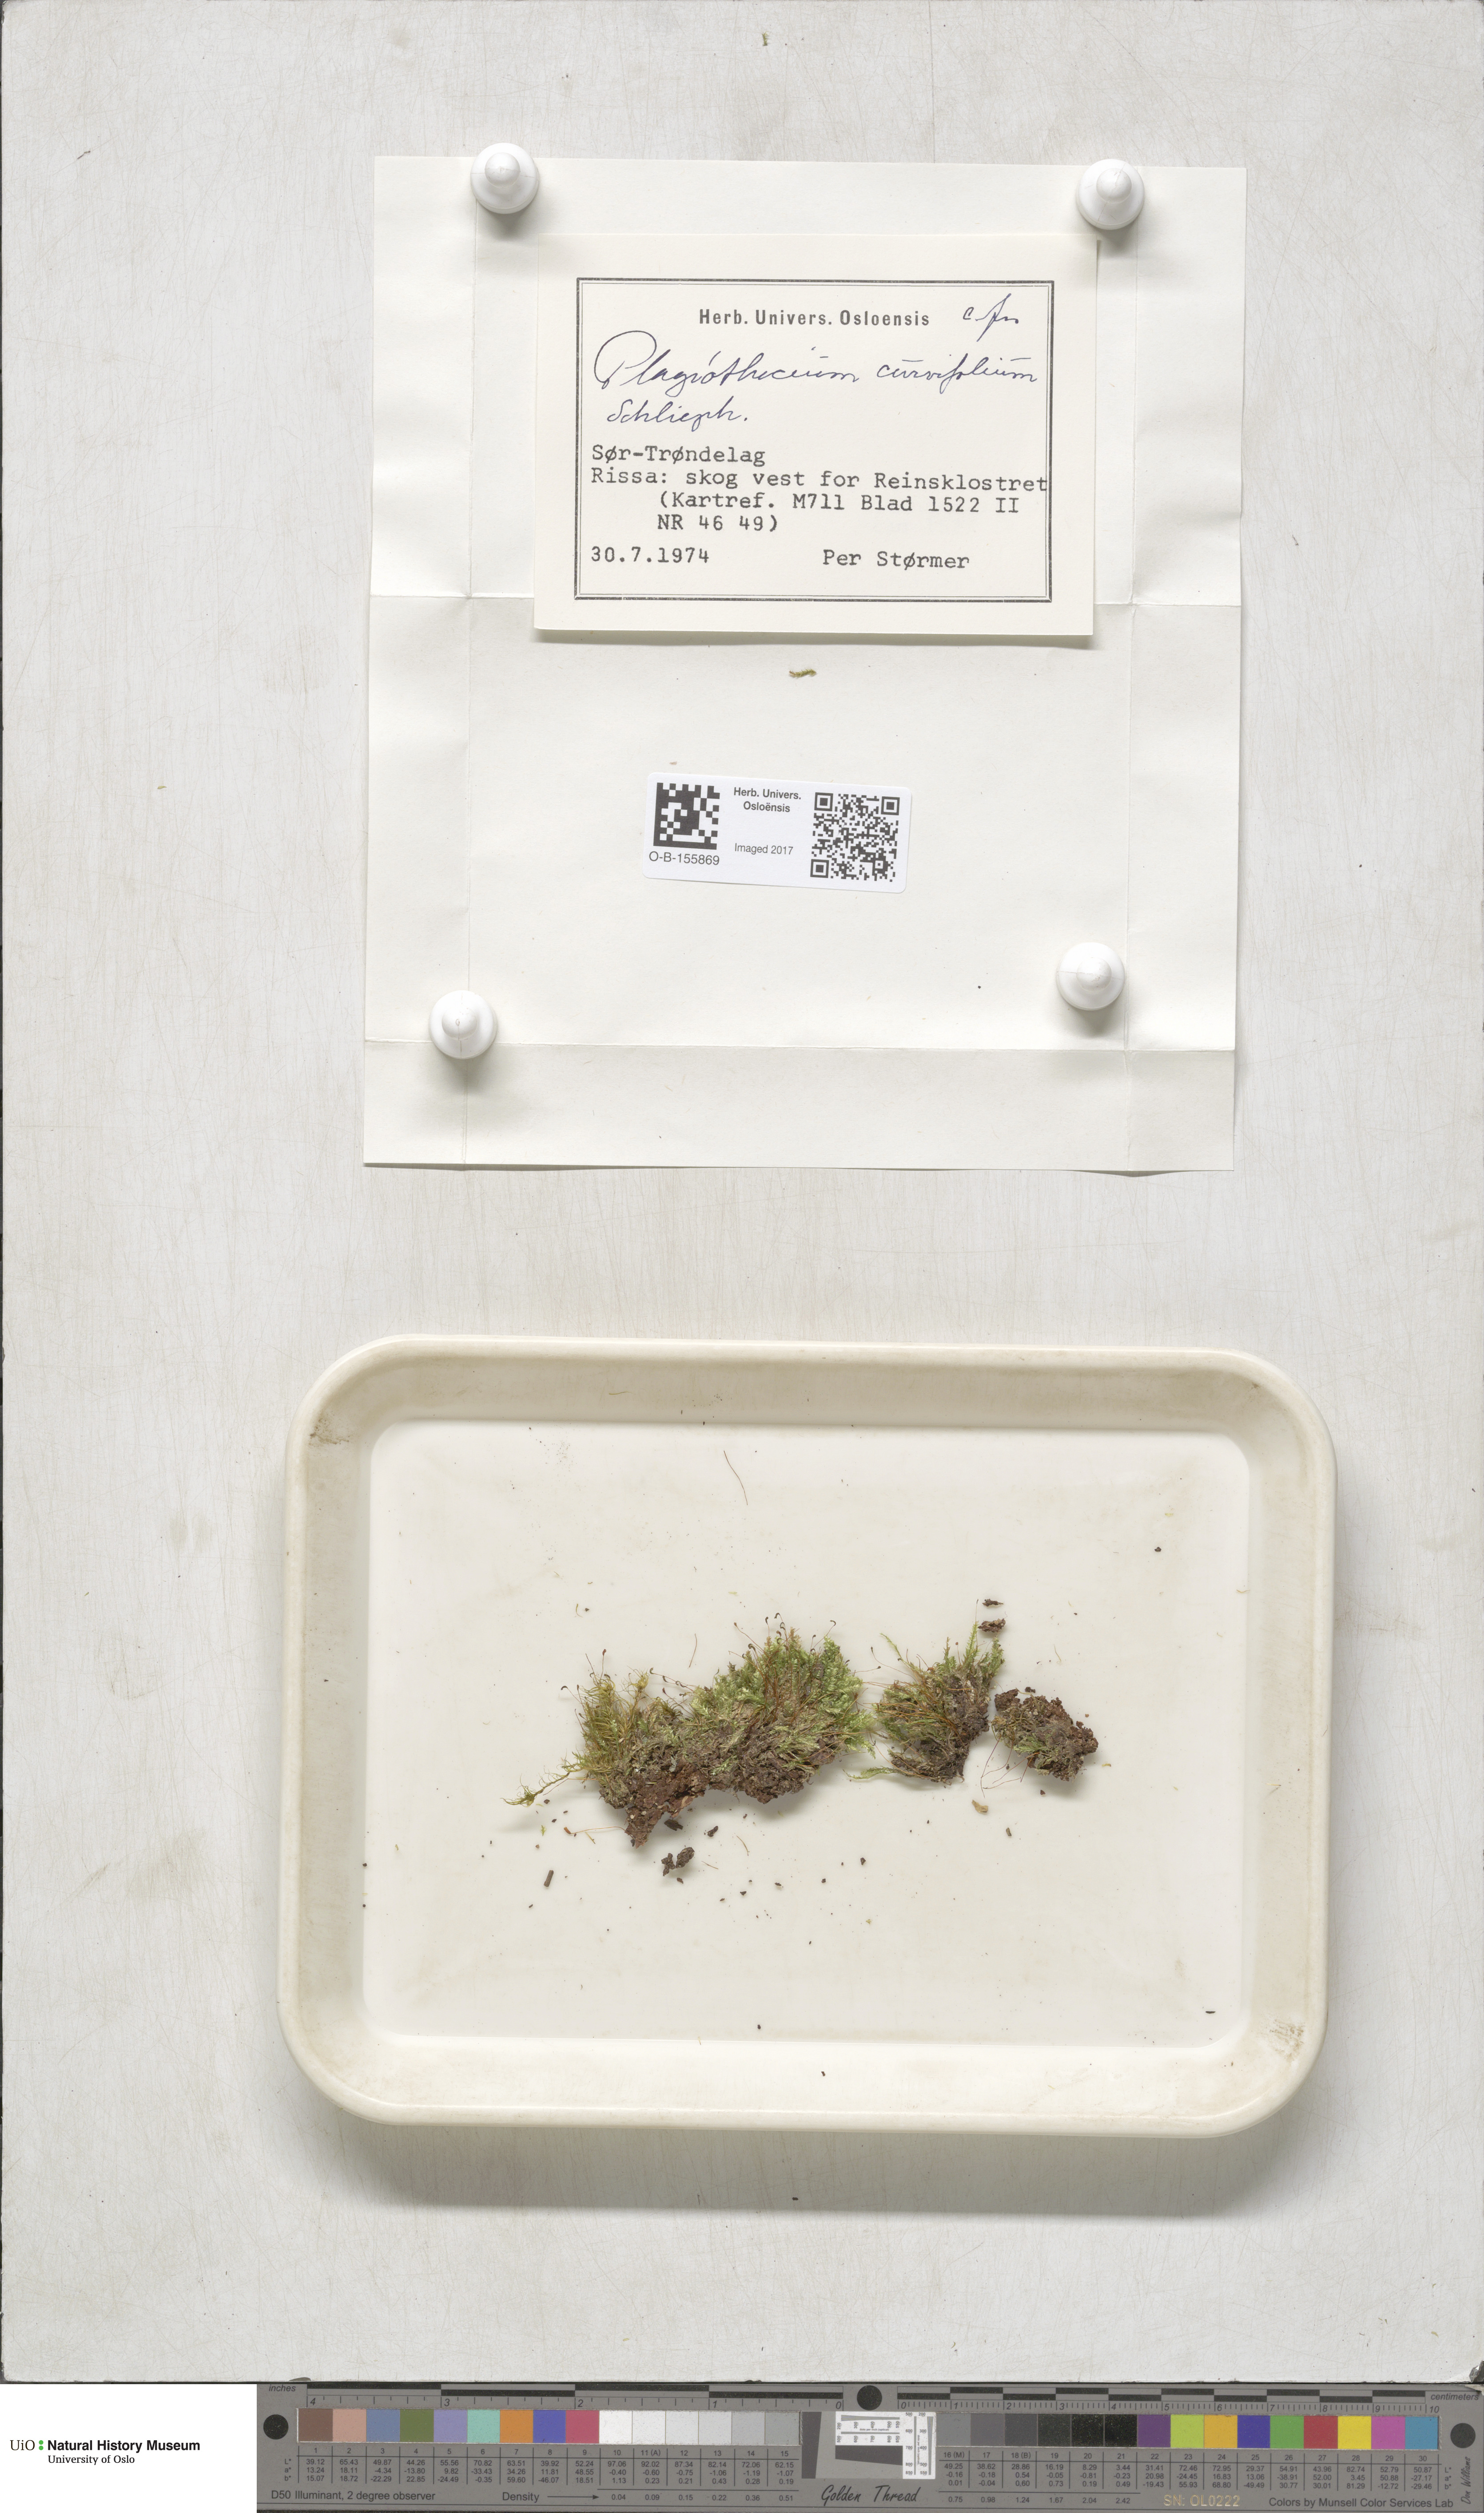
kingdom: Plantae
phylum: Bryophyta
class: Bryopsida
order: Hypnales
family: Plagiotheciaceae
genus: Plagiothecium
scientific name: Plagiothecium curvifolium
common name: Curved silk-moss
